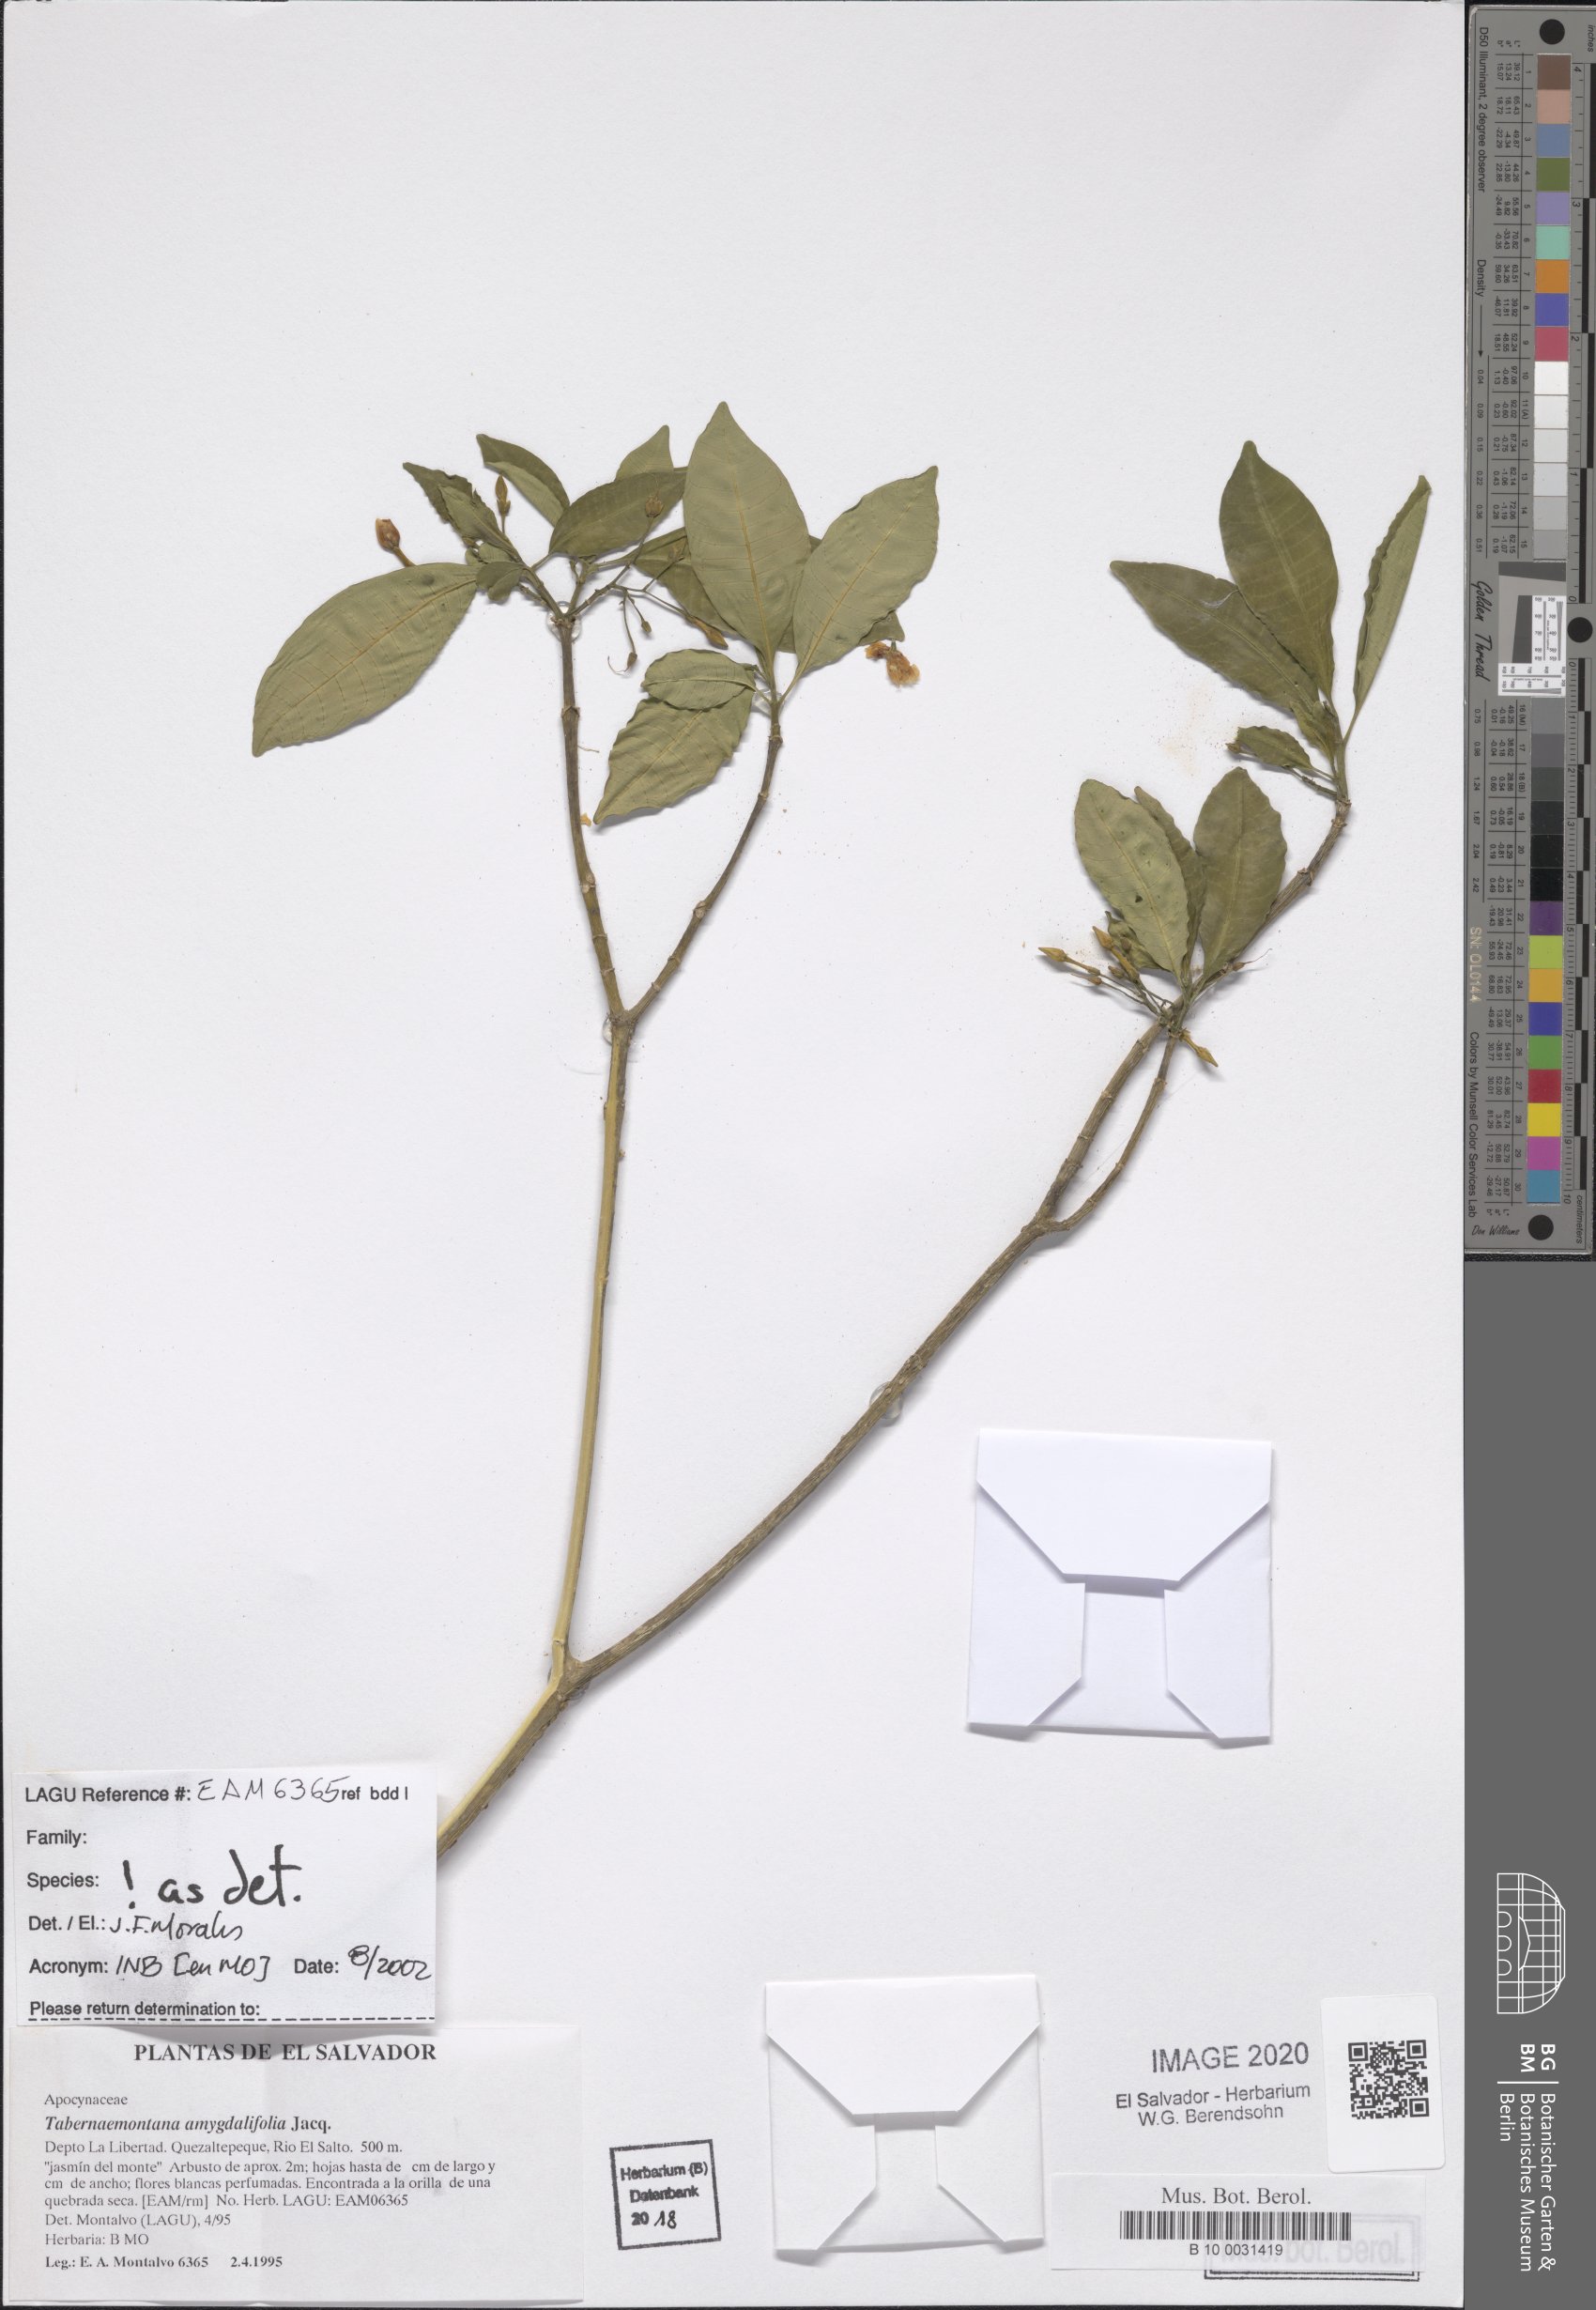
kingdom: Plantae
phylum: Tracheophyta
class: Magnoliopsida
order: Gentianales
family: Apocynaceae
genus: Tabernaemontana
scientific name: Tabernaemontana amygdalifolia
